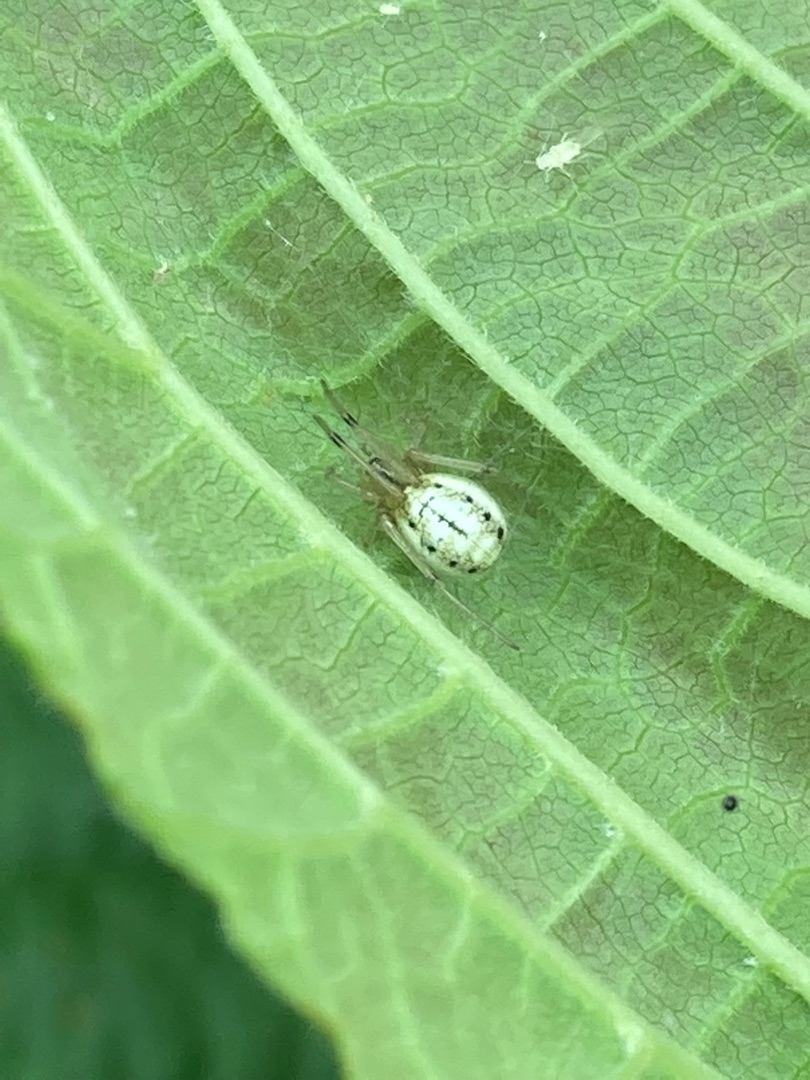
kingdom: Animalia
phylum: Arthropoda
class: Arachnida
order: Araneae
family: Theridiidae
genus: Enoplognatha
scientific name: Enoplognatha
